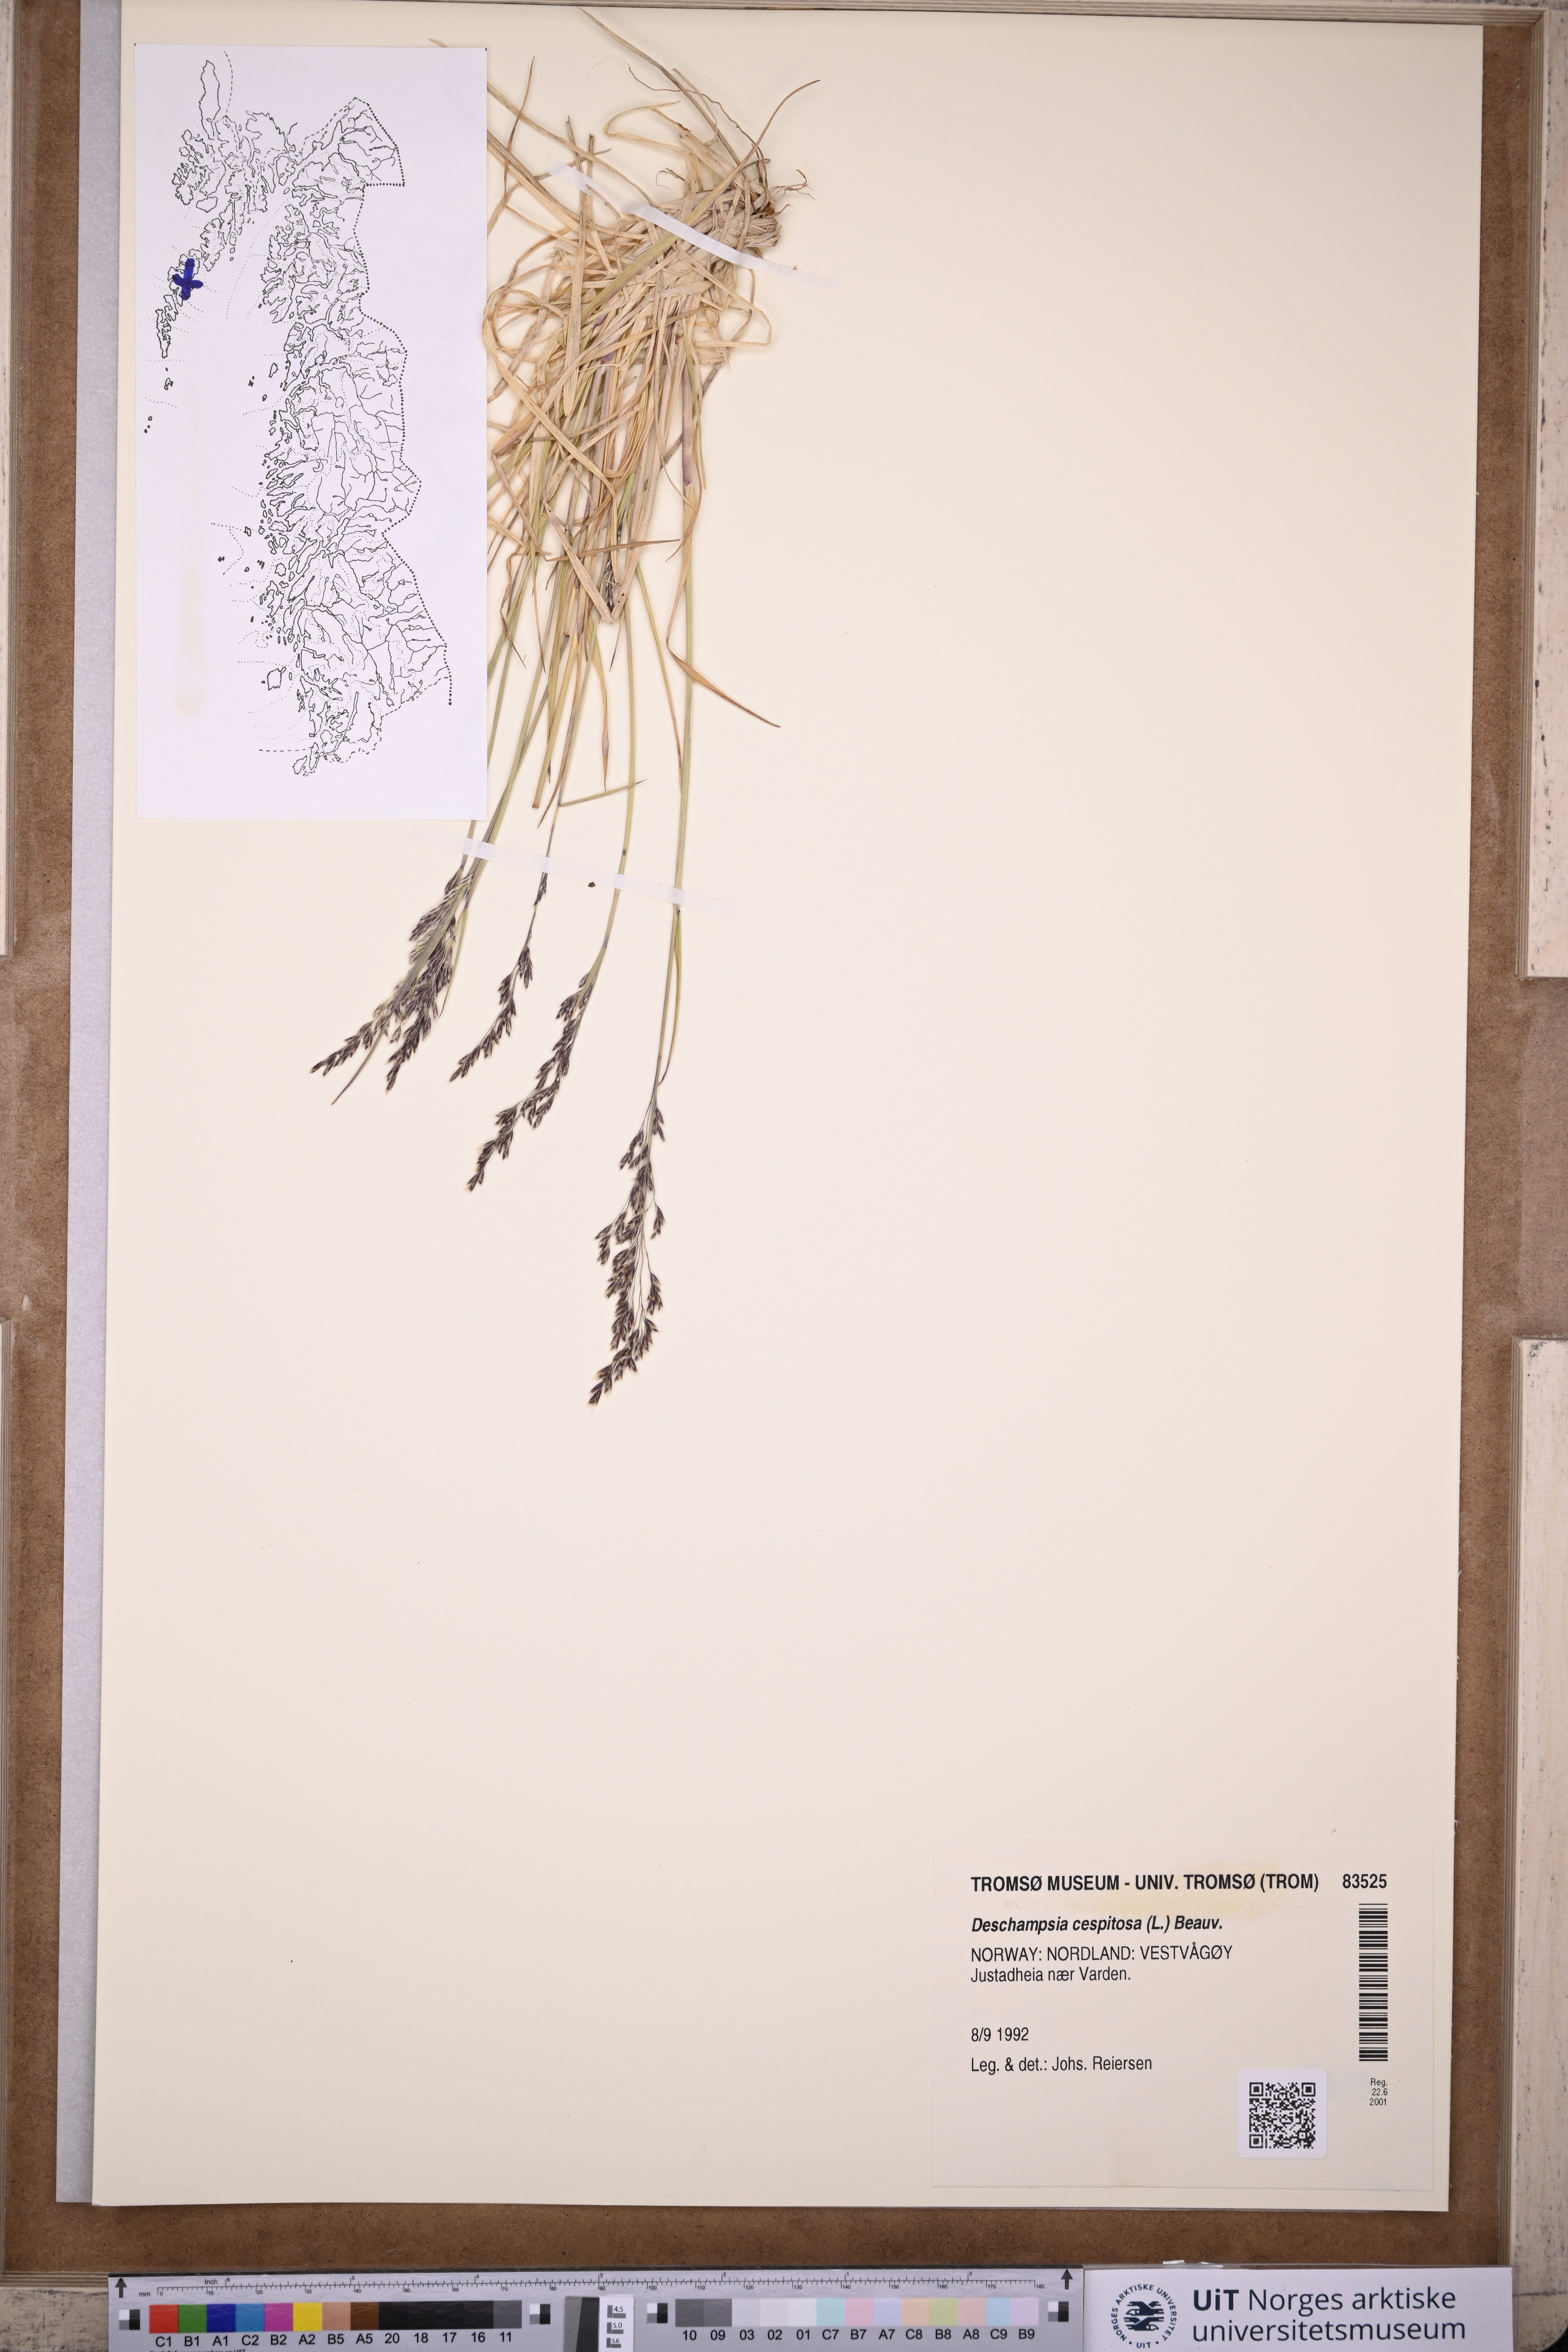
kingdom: Plantae
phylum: Tracheophyta
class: Liliopsida
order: Poales
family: Poaceae
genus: Deschampsia
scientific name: Deschampsia cespitosa
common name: Tufted hair-grass
